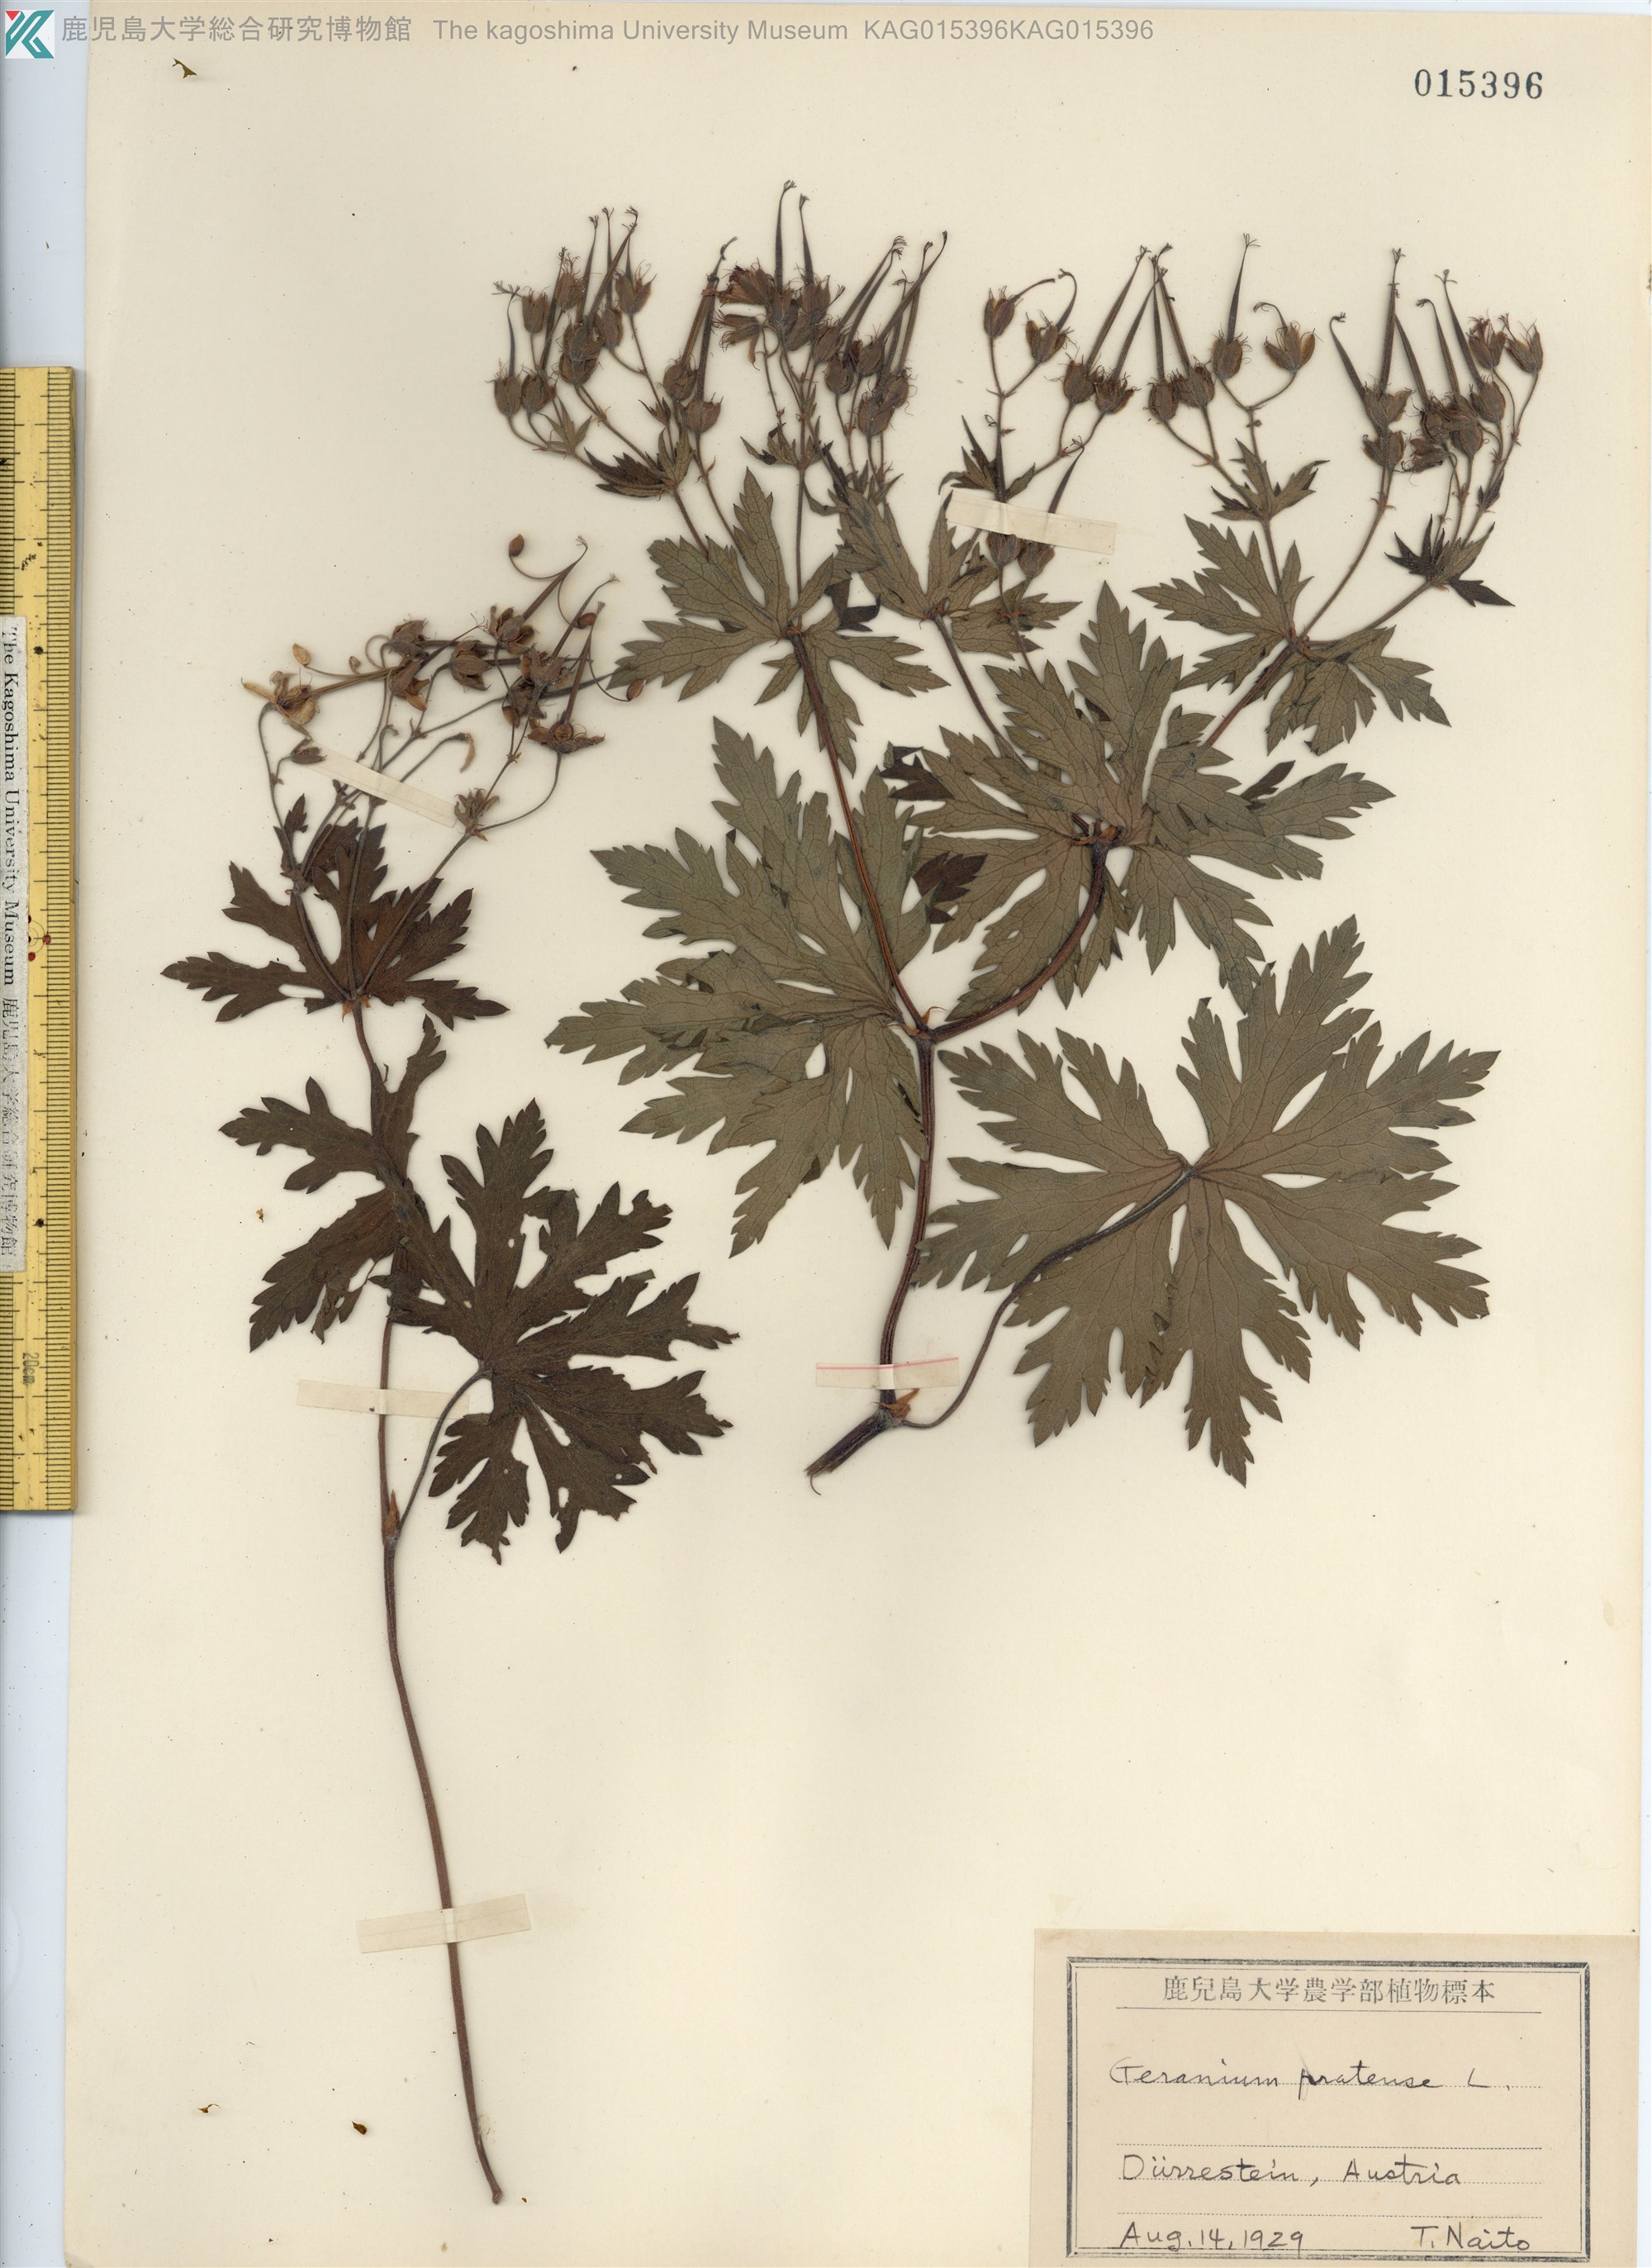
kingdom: Plantae
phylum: Tracheophyta
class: Magnoliopsida
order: Geraniales
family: Geraniaceae
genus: Geranium
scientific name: Geranium pratense
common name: Meadow crane's-bill
